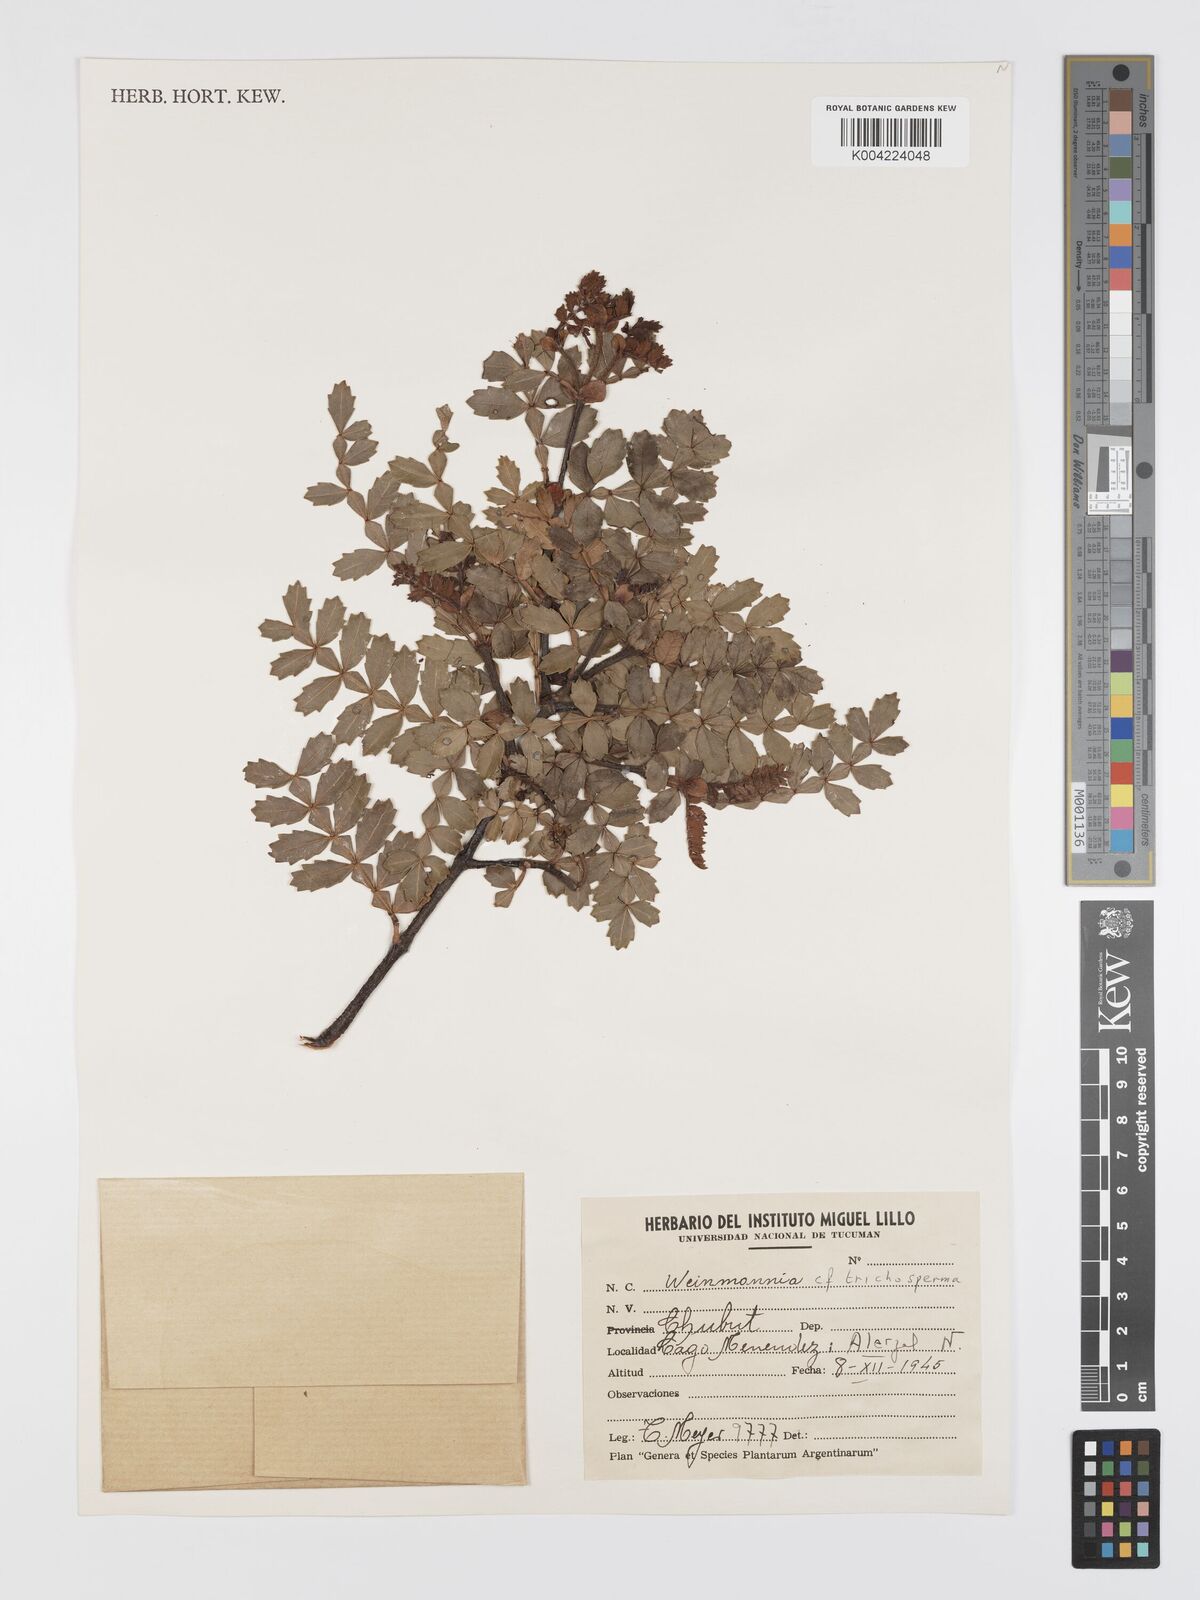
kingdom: Plantae
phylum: Tracheophyta
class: Magnoliopsida
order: Oxalidales
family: Cunoniaceae
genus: Weinmannia
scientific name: Weinmannia trichosperma
